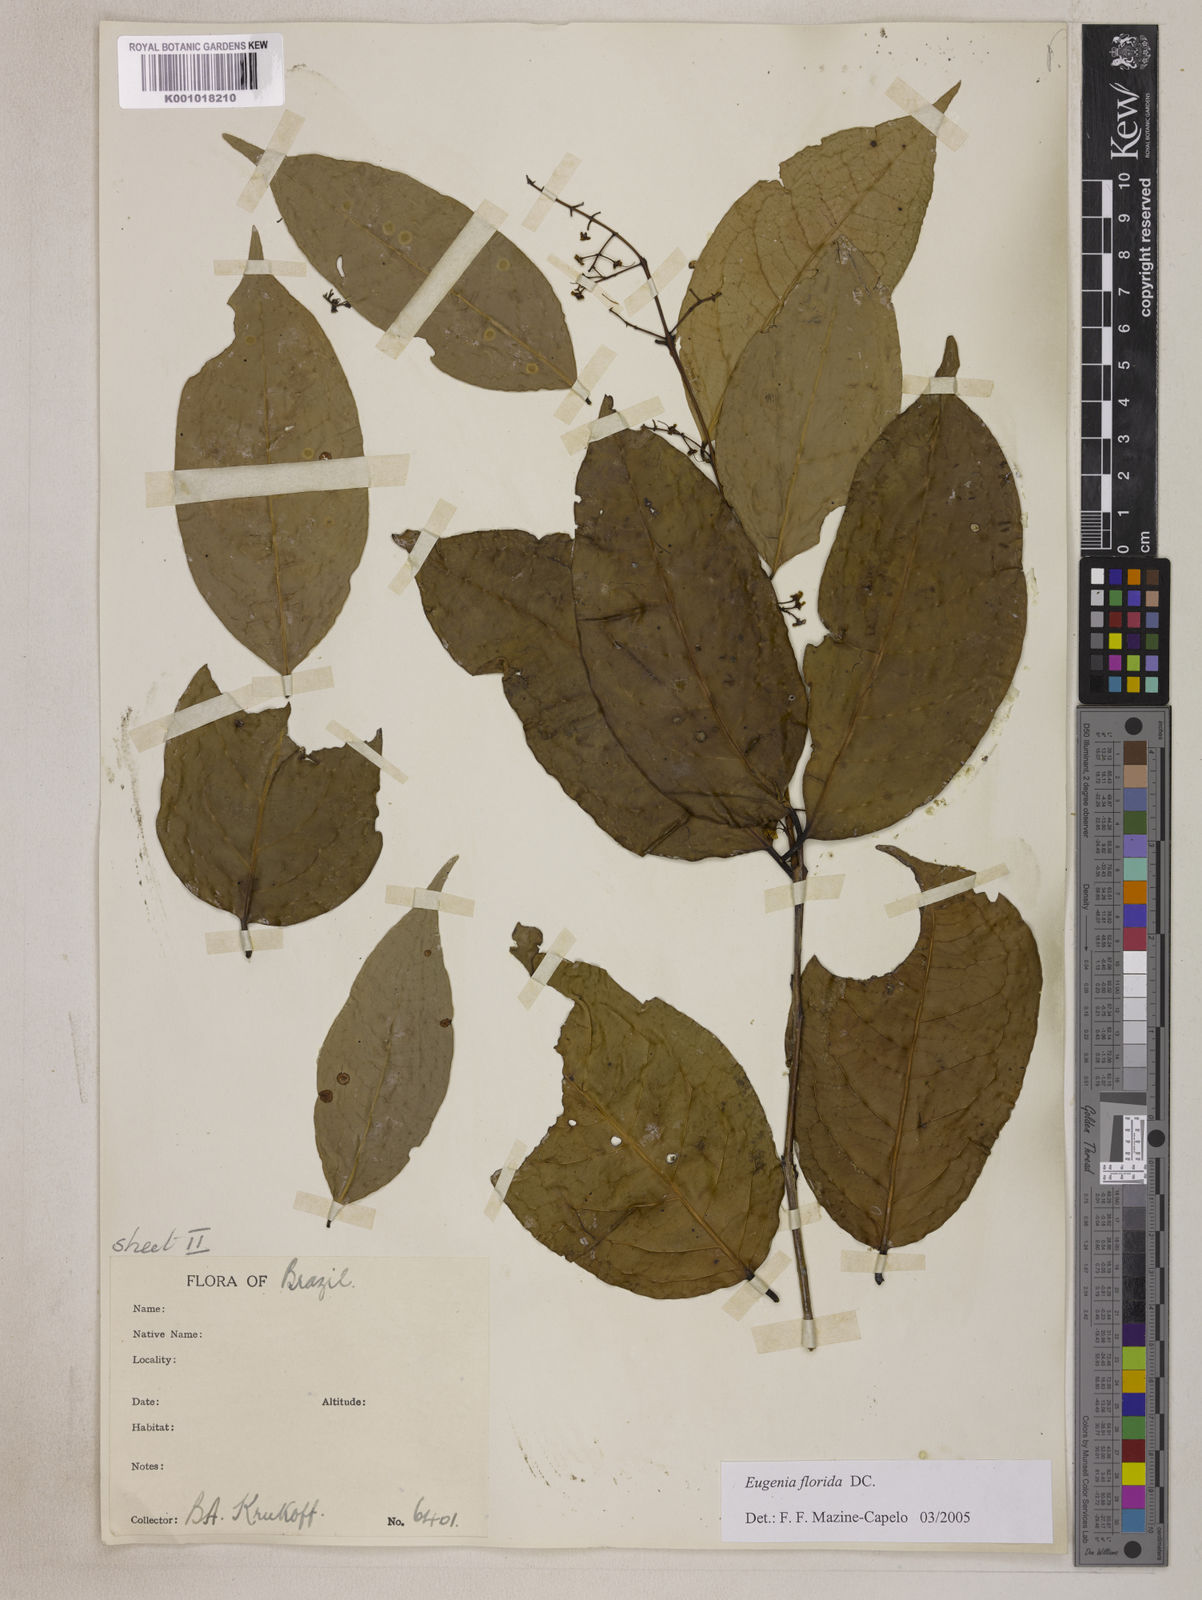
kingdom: Plantae
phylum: Tracheophyta
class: Magnoliopsida
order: Myrtales
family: Myrtaceae
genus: Eugenia
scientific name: Eugenia florida
